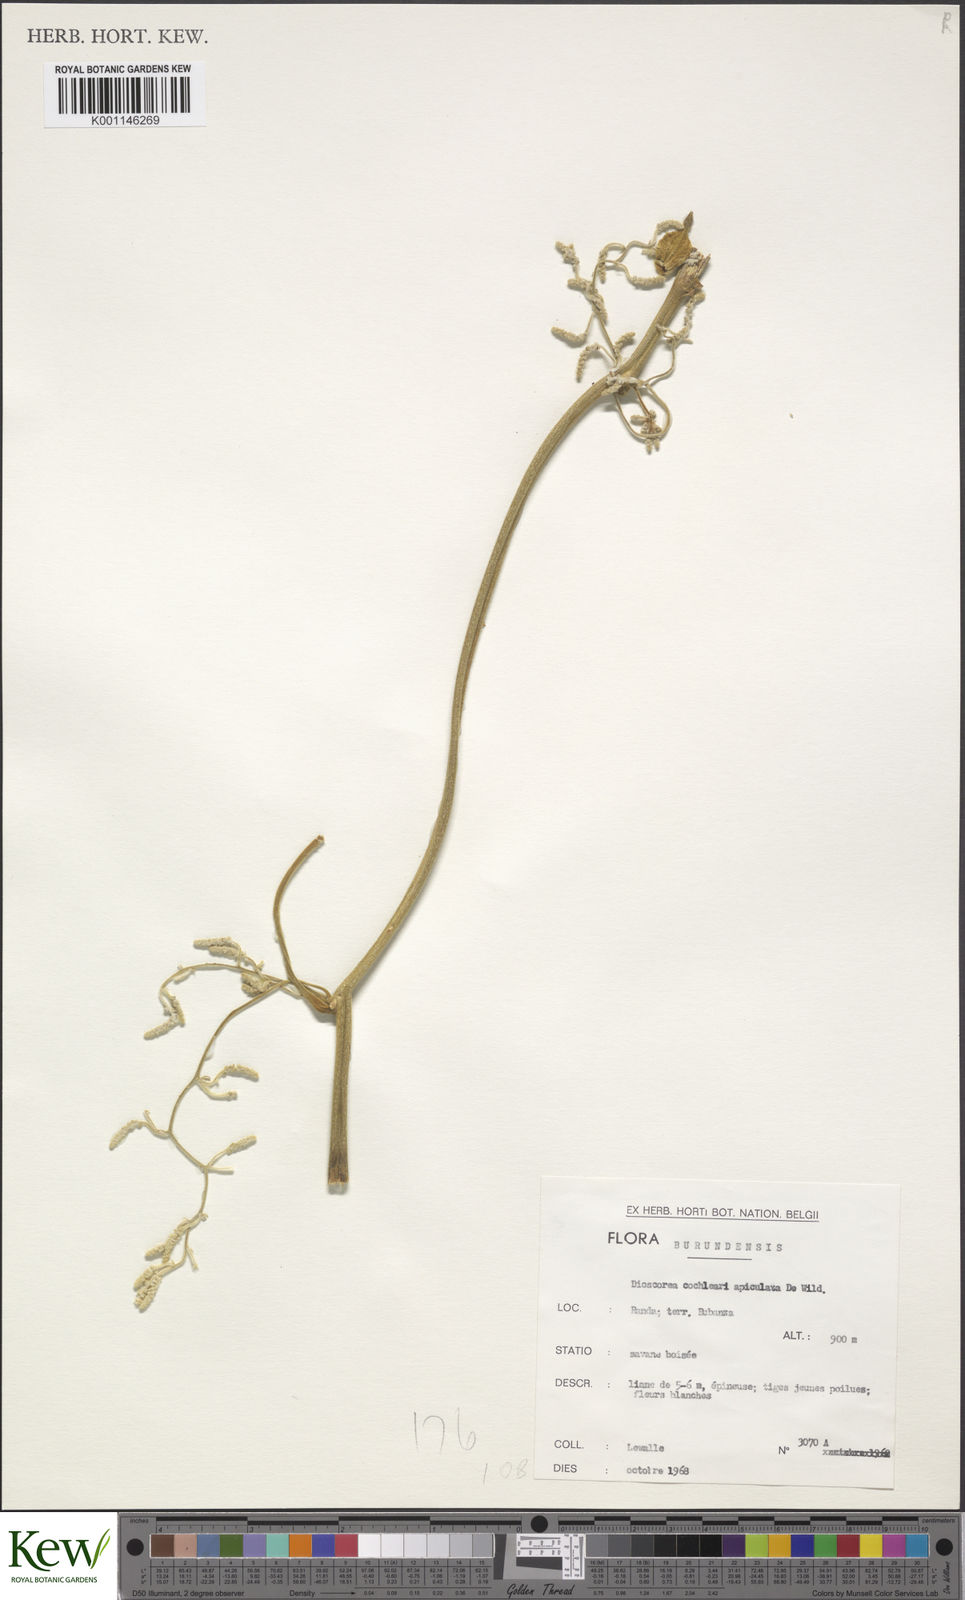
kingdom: Plantae
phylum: Tracheophyta
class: Liliopsida
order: Dioscoreales
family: Dioscoreaceae
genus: Dioscorea
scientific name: Dioscorea cochleariapiculata
